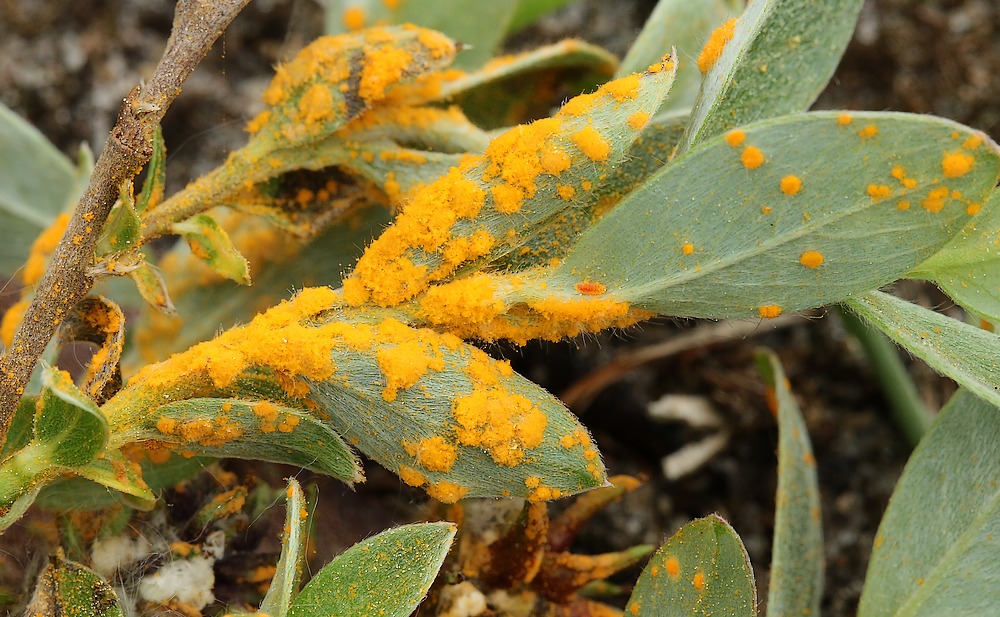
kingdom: Fungi
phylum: Basidiomycota
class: Pucciniomycetes
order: Pucciniales
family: Melampsoraceae
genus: Melampsora
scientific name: Melampsora epitea
